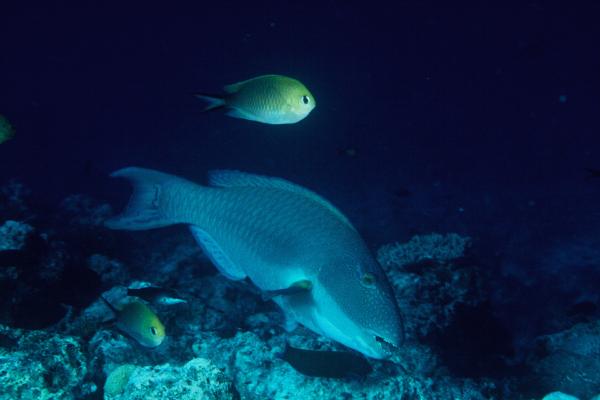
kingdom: Animalia
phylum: Chordata
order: Perciformes
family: Scaridae
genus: Cetoscarus
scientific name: Cetoscarus bicolor
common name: Bicolour parrotfish
